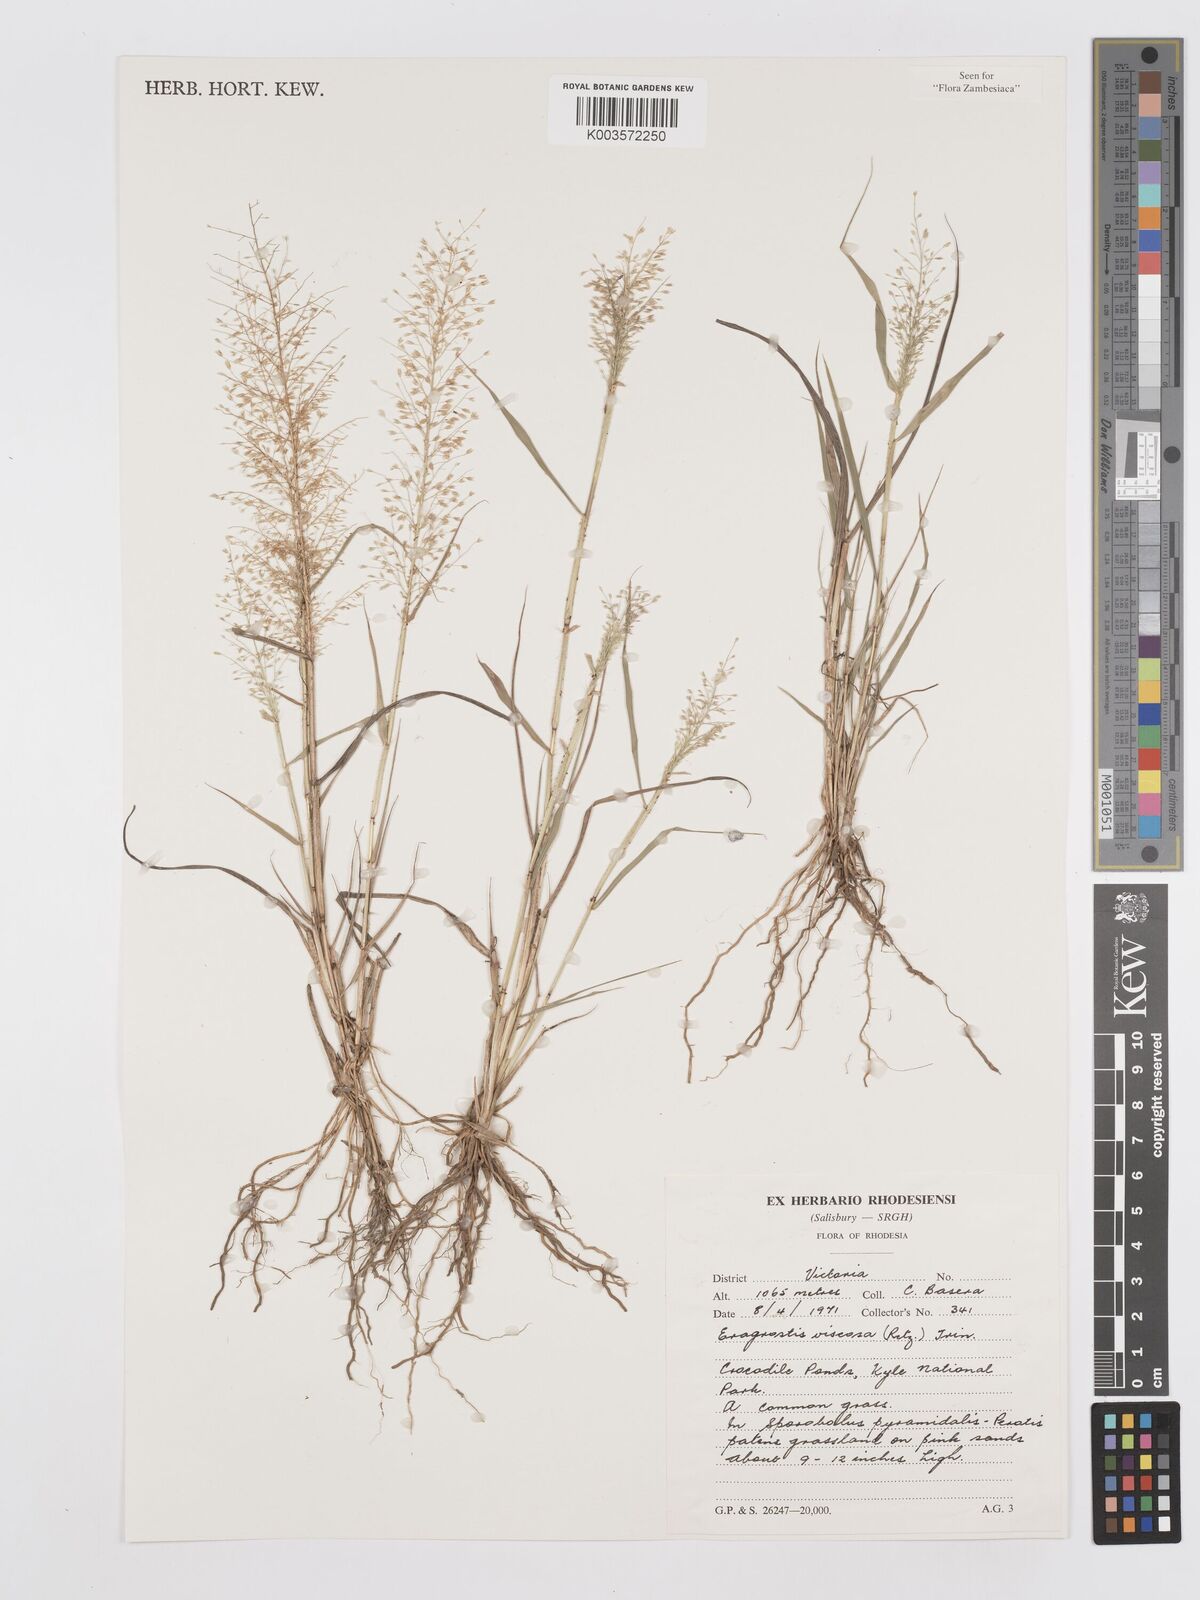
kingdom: Plantae
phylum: Tracheophyta
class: Liliopsida
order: Poales
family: Poaceae
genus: Eragrostis
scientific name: Eragrostis
